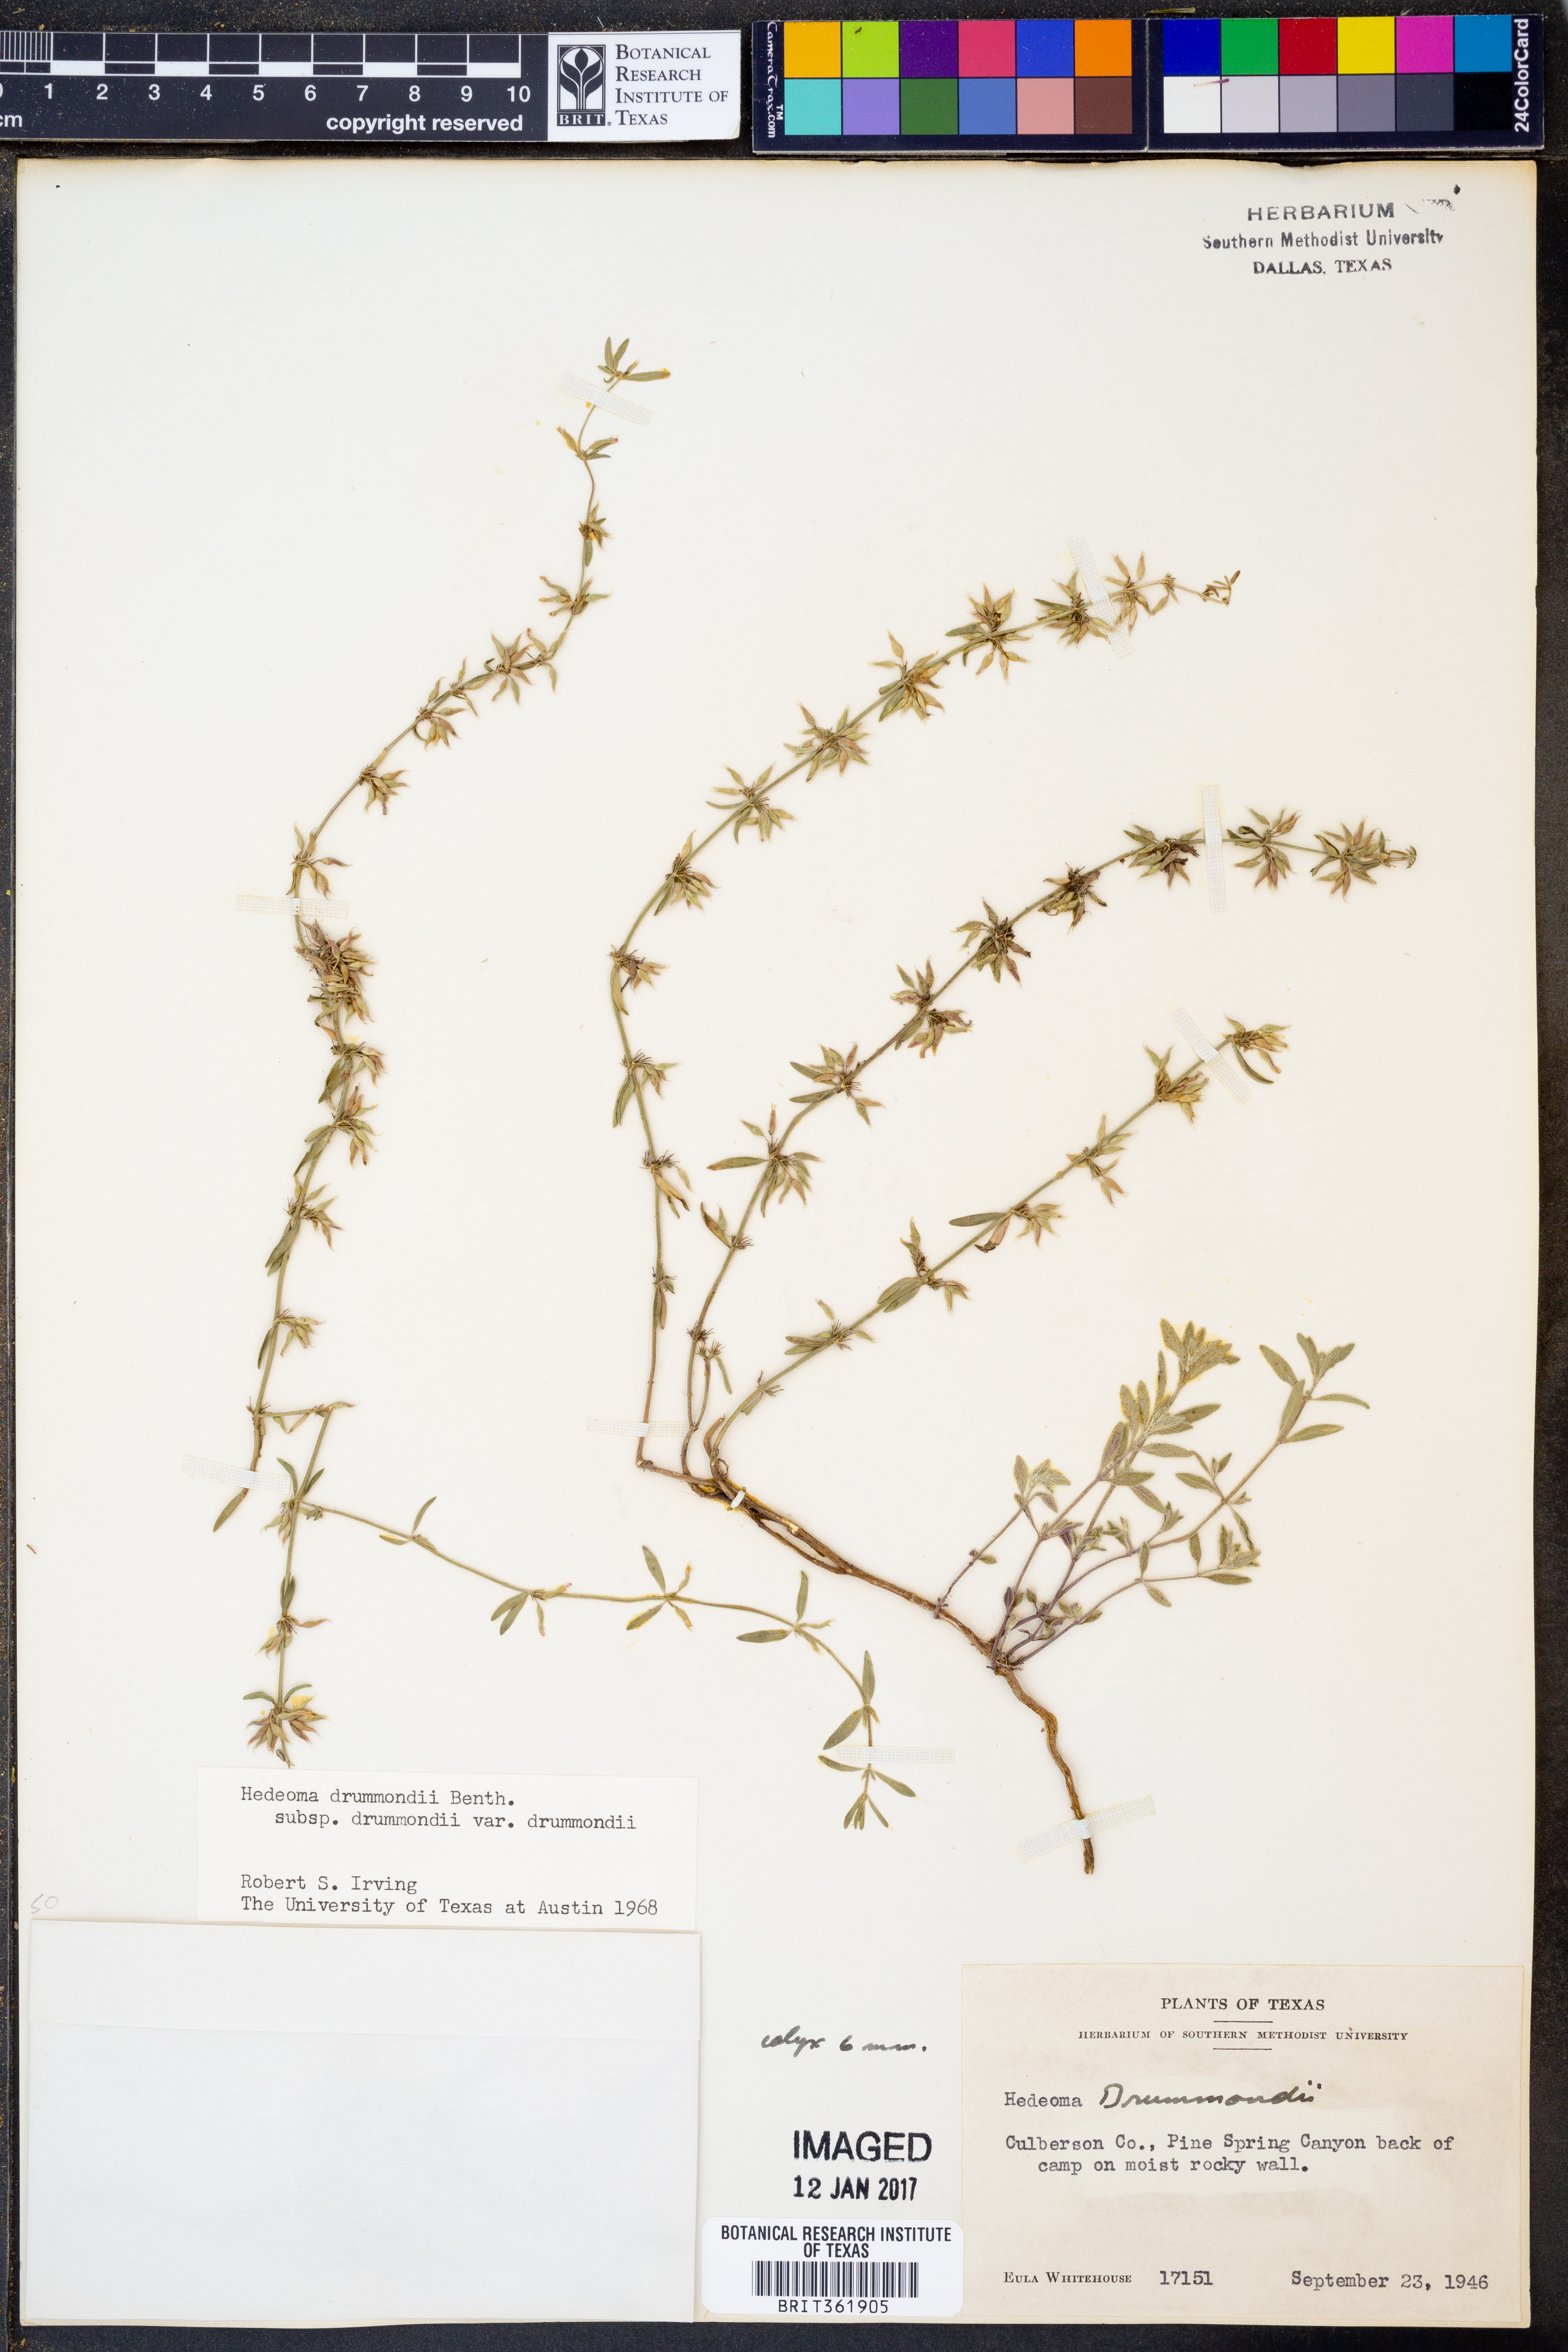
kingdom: Plantae
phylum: Tracheophyta
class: Magnoliopsida
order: Lamiales
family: Lamiaceae
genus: Hedeoma
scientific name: Hedeoma drummondii
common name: New mexico pennyroyal
